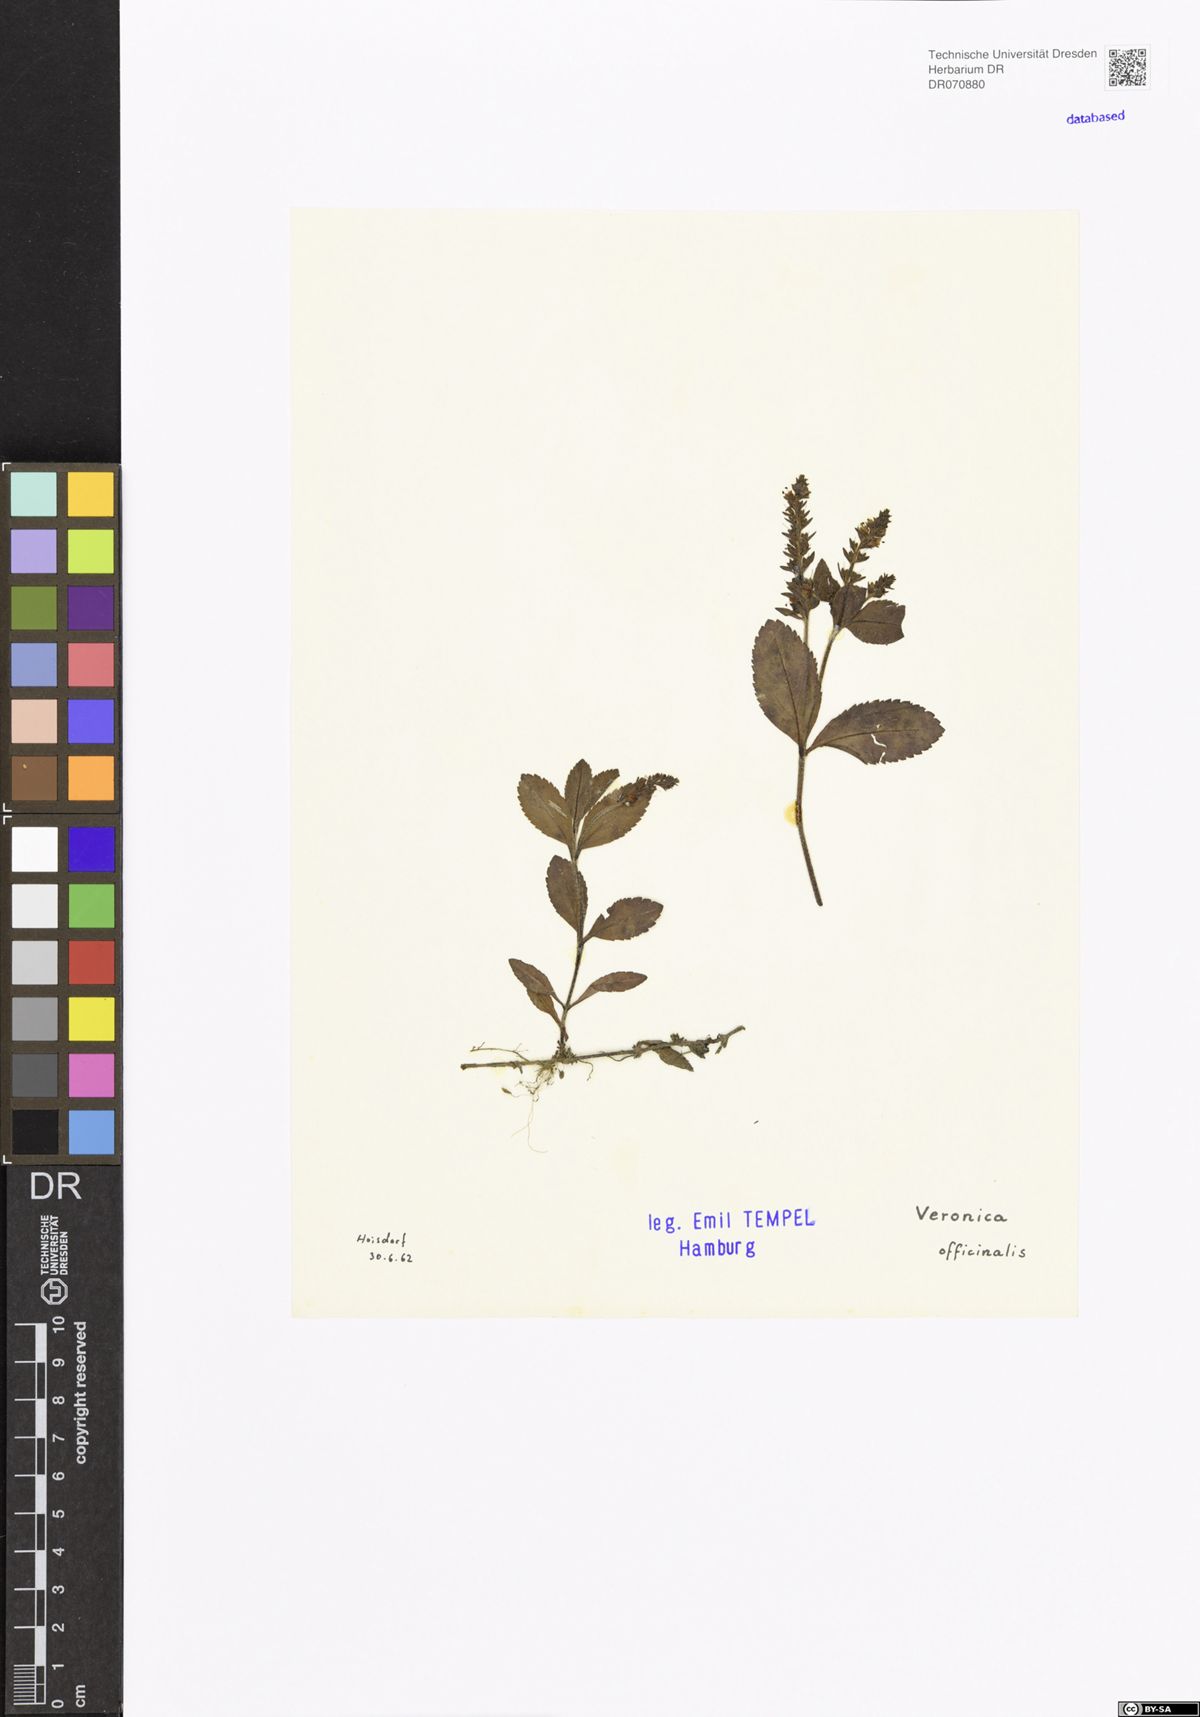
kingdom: Plantae
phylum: Tracheophyta
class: Magnoliopsida
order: Lamiales
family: Plantaginaceae
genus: Veronica
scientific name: Veronica officinalis
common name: Common speedwell
